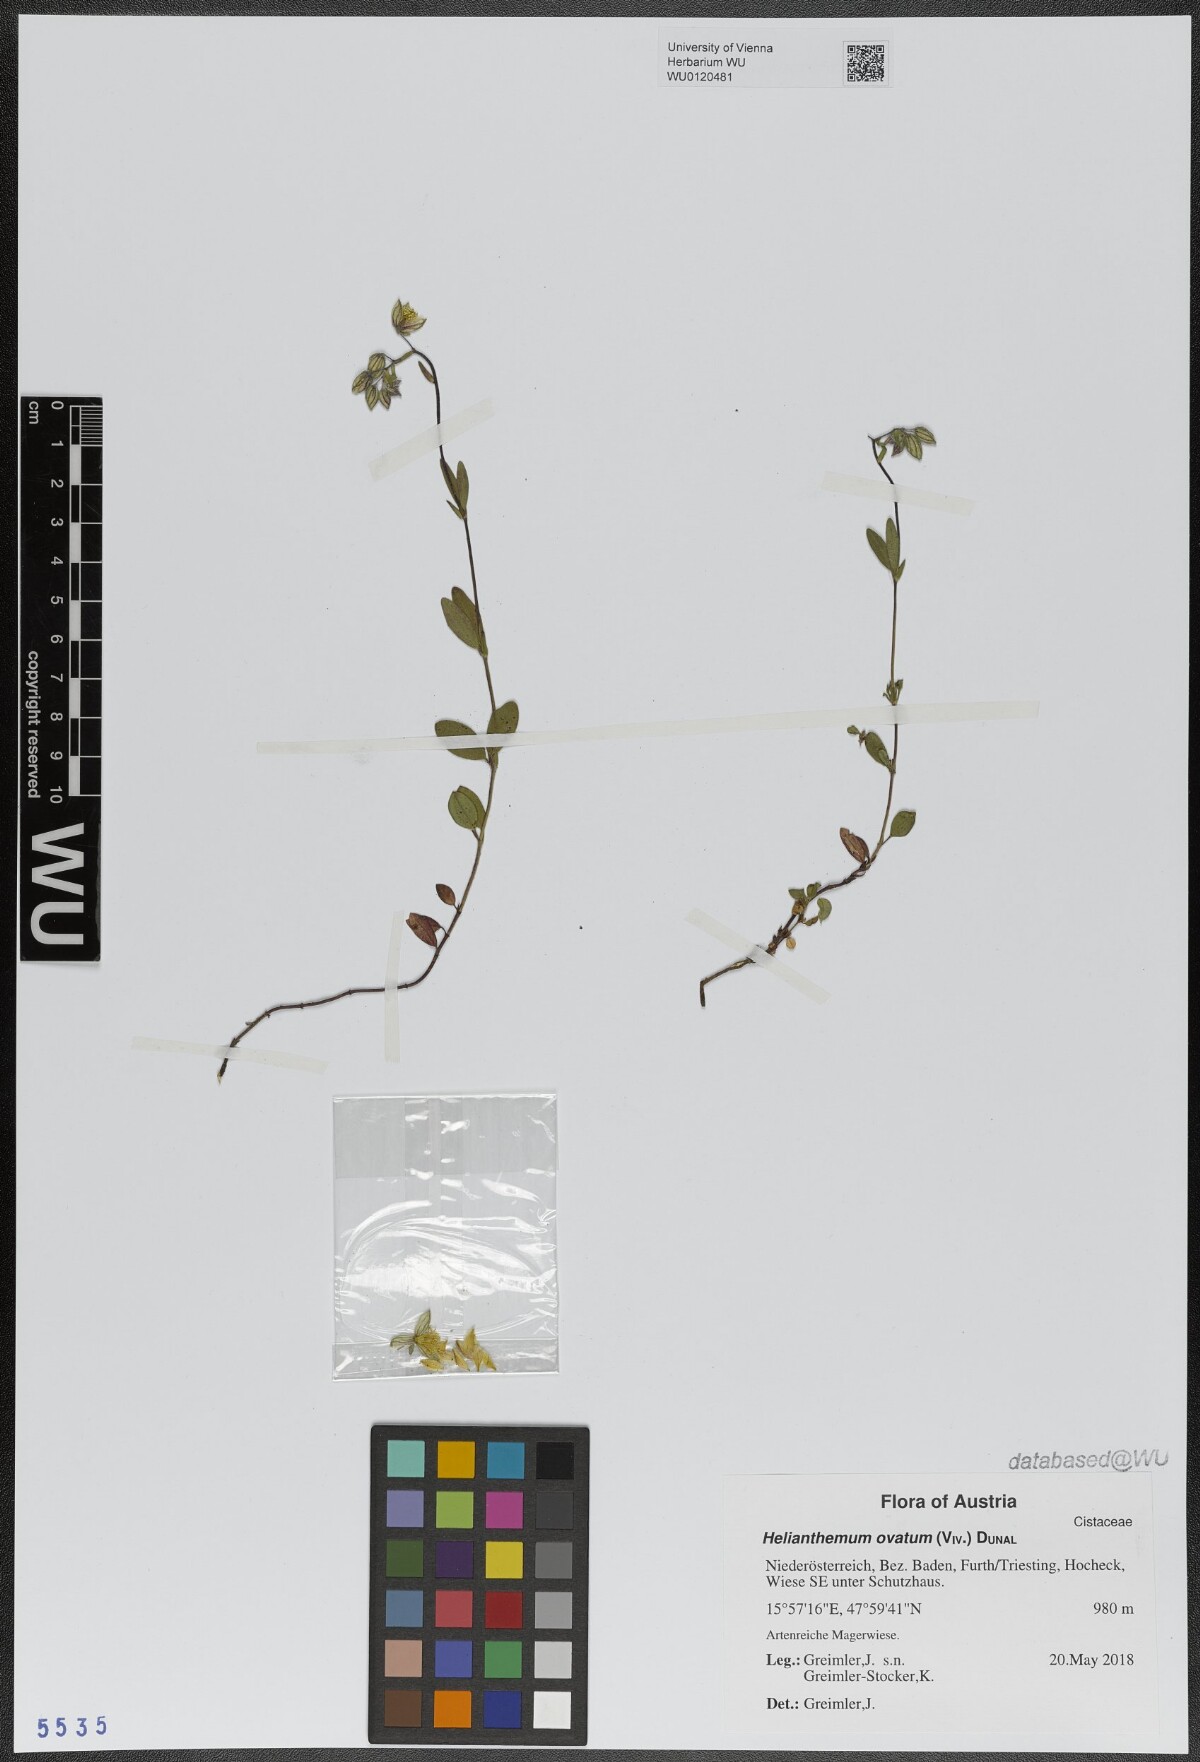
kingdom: Plantae
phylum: Tracheophyta
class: Magnoliopsida
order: Malvales
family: Cistaceae
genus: Helianthemum
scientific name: Helianthemum nummularium
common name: Common rock-rose
